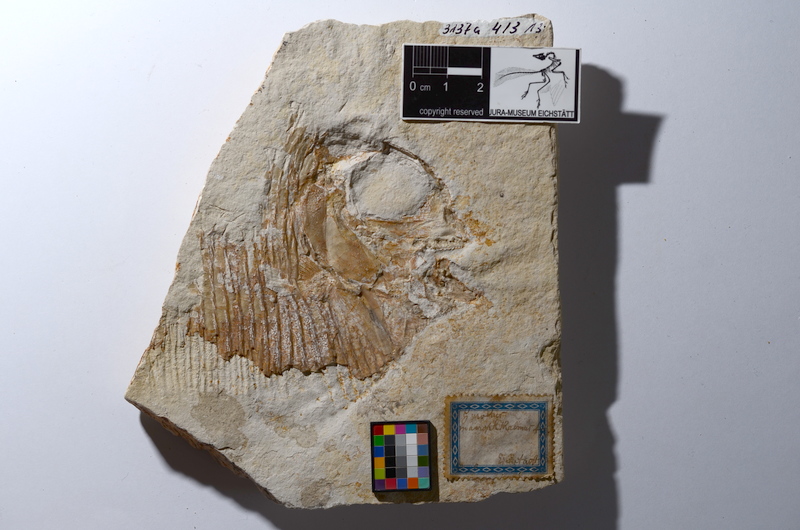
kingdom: Animalia
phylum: Chordata
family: Gyrodontidae
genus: Gyrodus
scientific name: Gyrodus hexagonus
